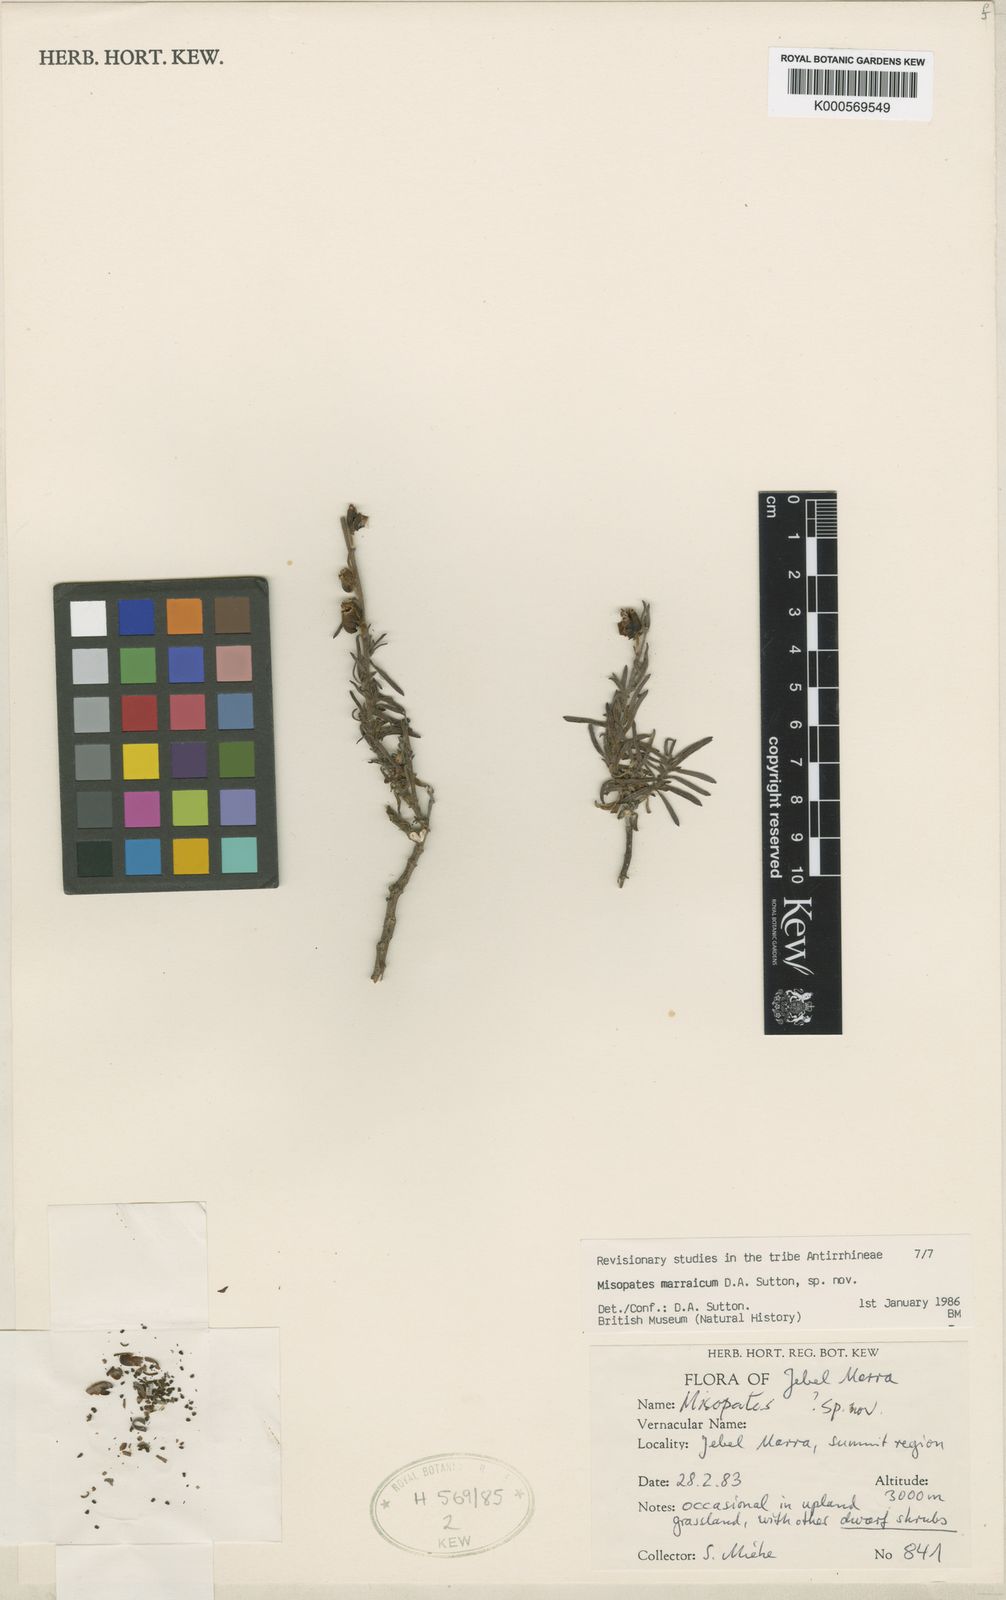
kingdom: Plantae
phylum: Tracheophyta
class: Magnoliopsida
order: Lamiales
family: Plantaginaceae
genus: Misopates
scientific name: Misopates marraicum
